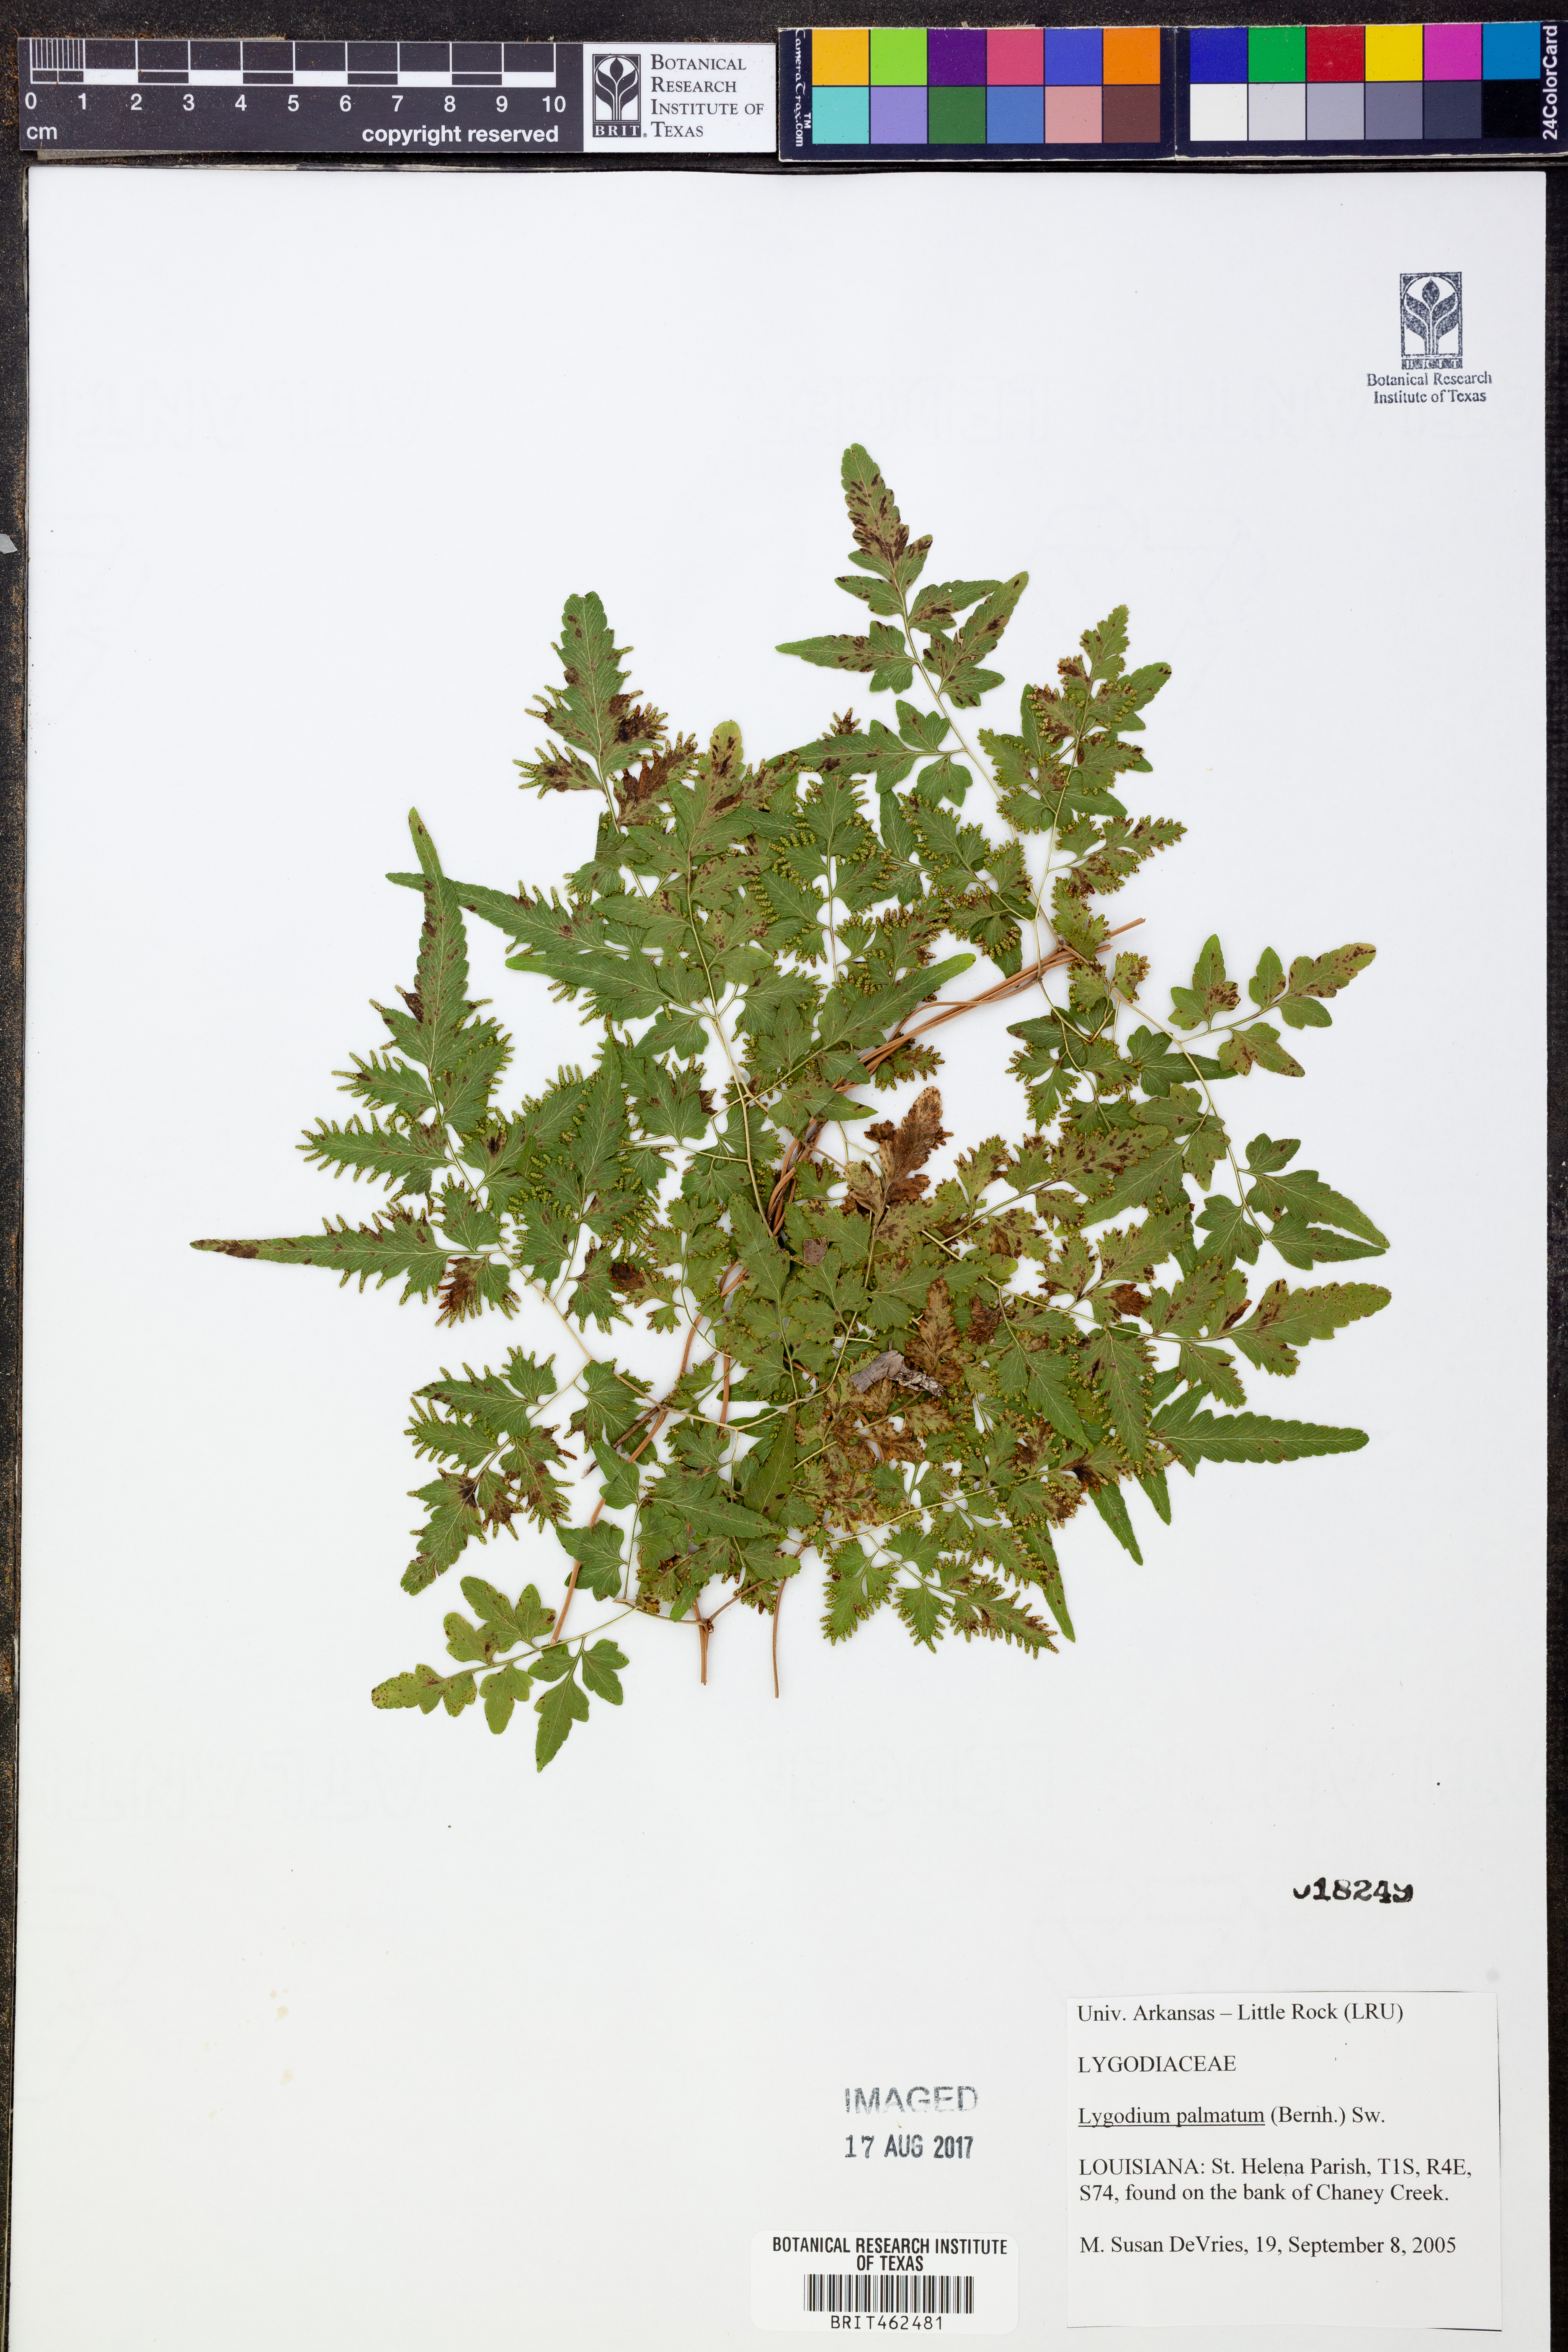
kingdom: Plantae
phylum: Tracheophyta
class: Polypodiopsida
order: Schizaeales
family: Lygodiaceae
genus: Lygodium
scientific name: Lygodium palmatum
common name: American climbing fern
